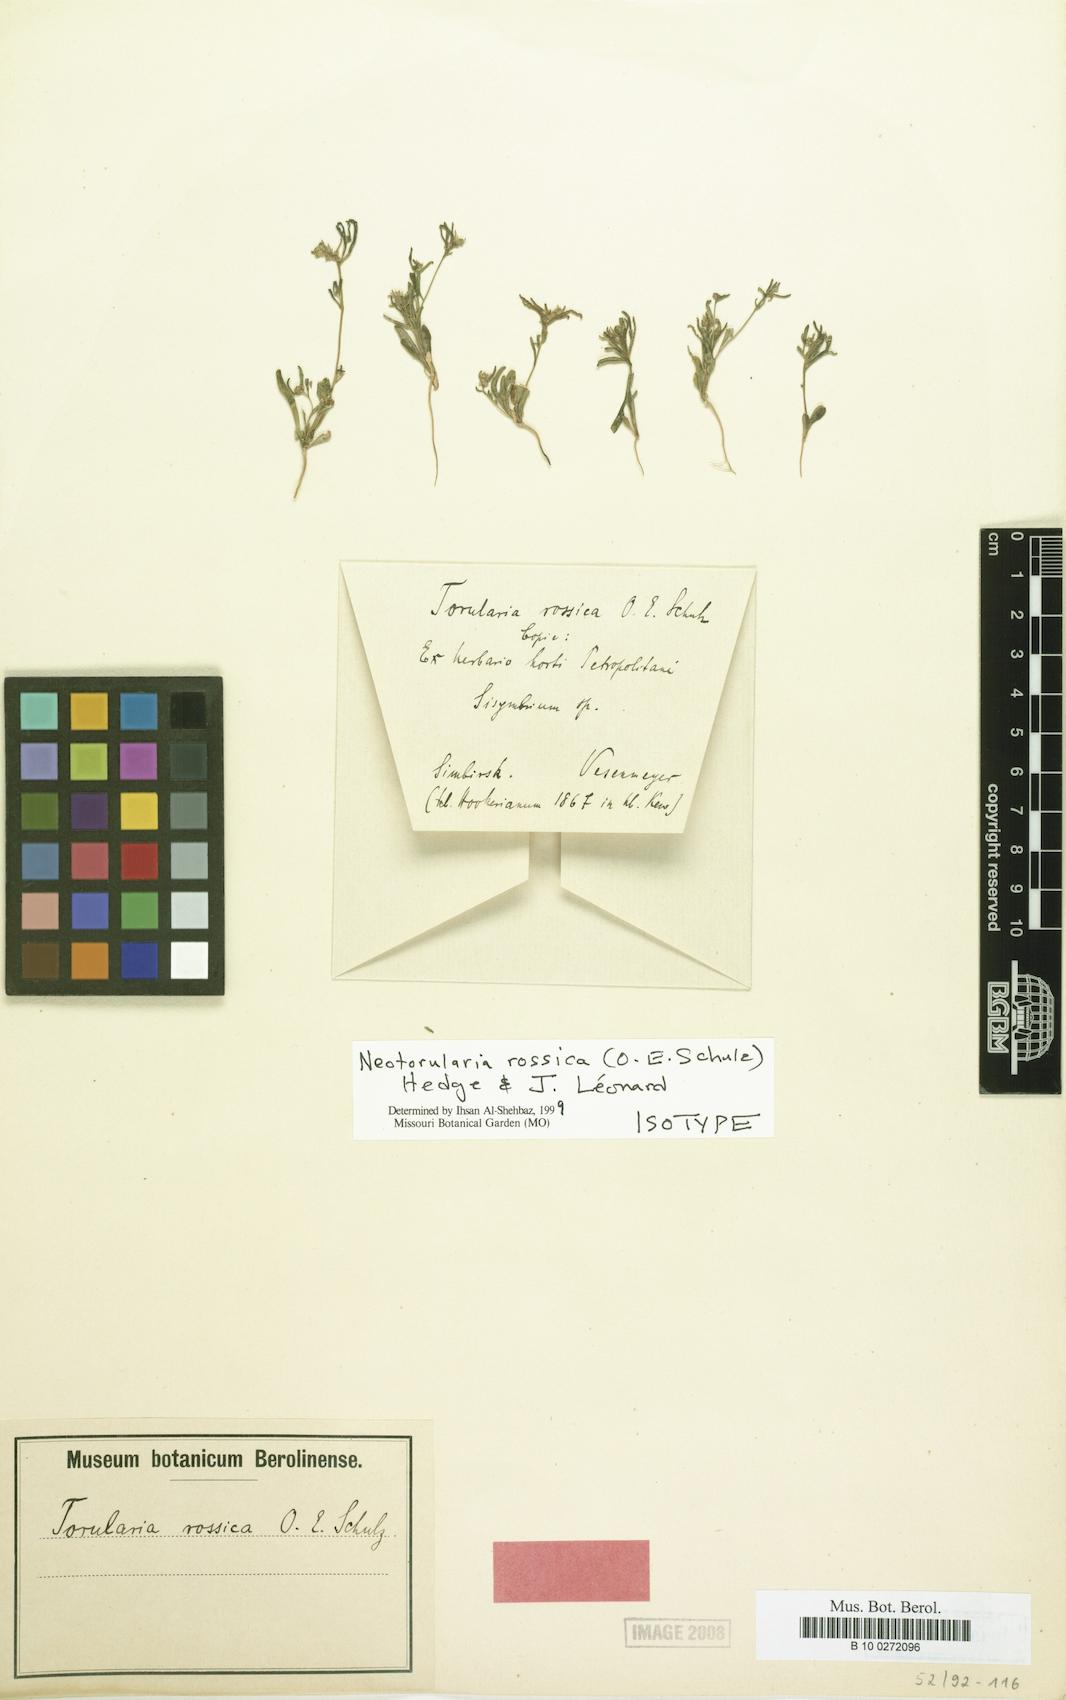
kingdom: Plantae
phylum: Tracheophyta
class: Magnoliopsida
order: Brassicales
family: Brassicaceae
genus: Neotorularia
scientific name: Neotorularia rossica
